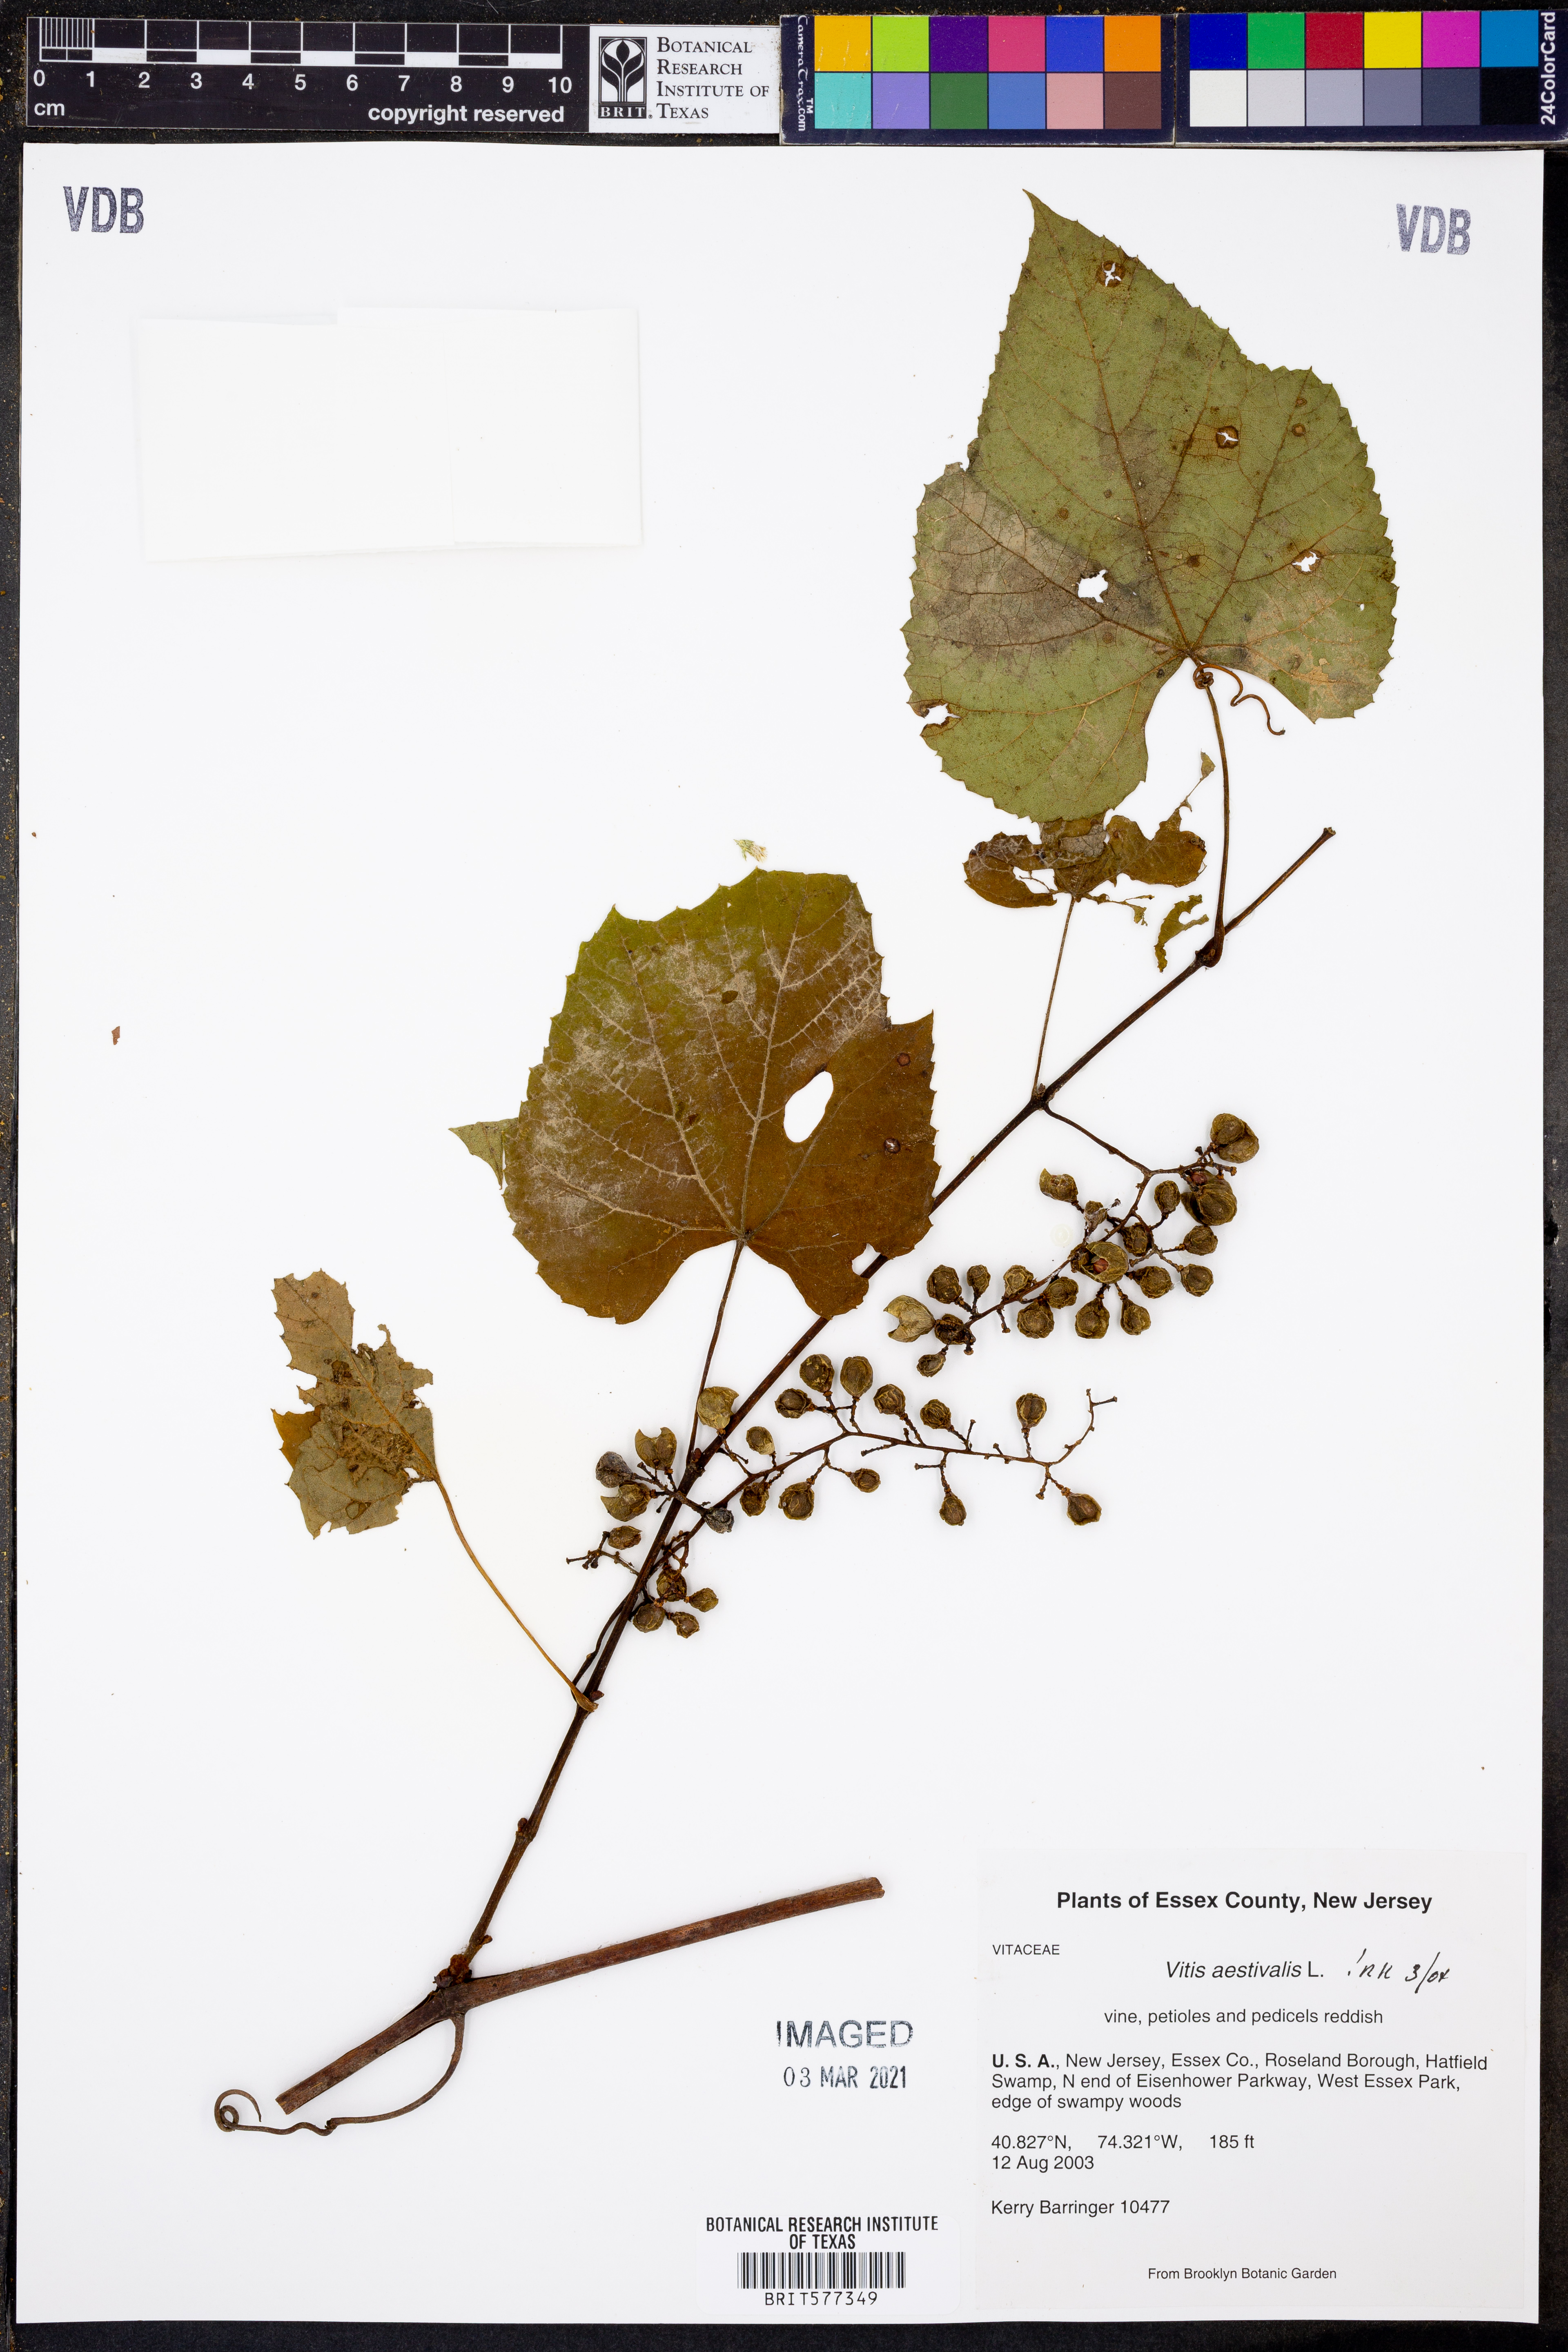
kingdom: Plantae
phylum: Tracheophyta
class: Magnoliopsida
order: Vitales
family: Vitaceae
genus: Vitis
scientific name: Vitis aestivalis
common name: Pigeon grape
